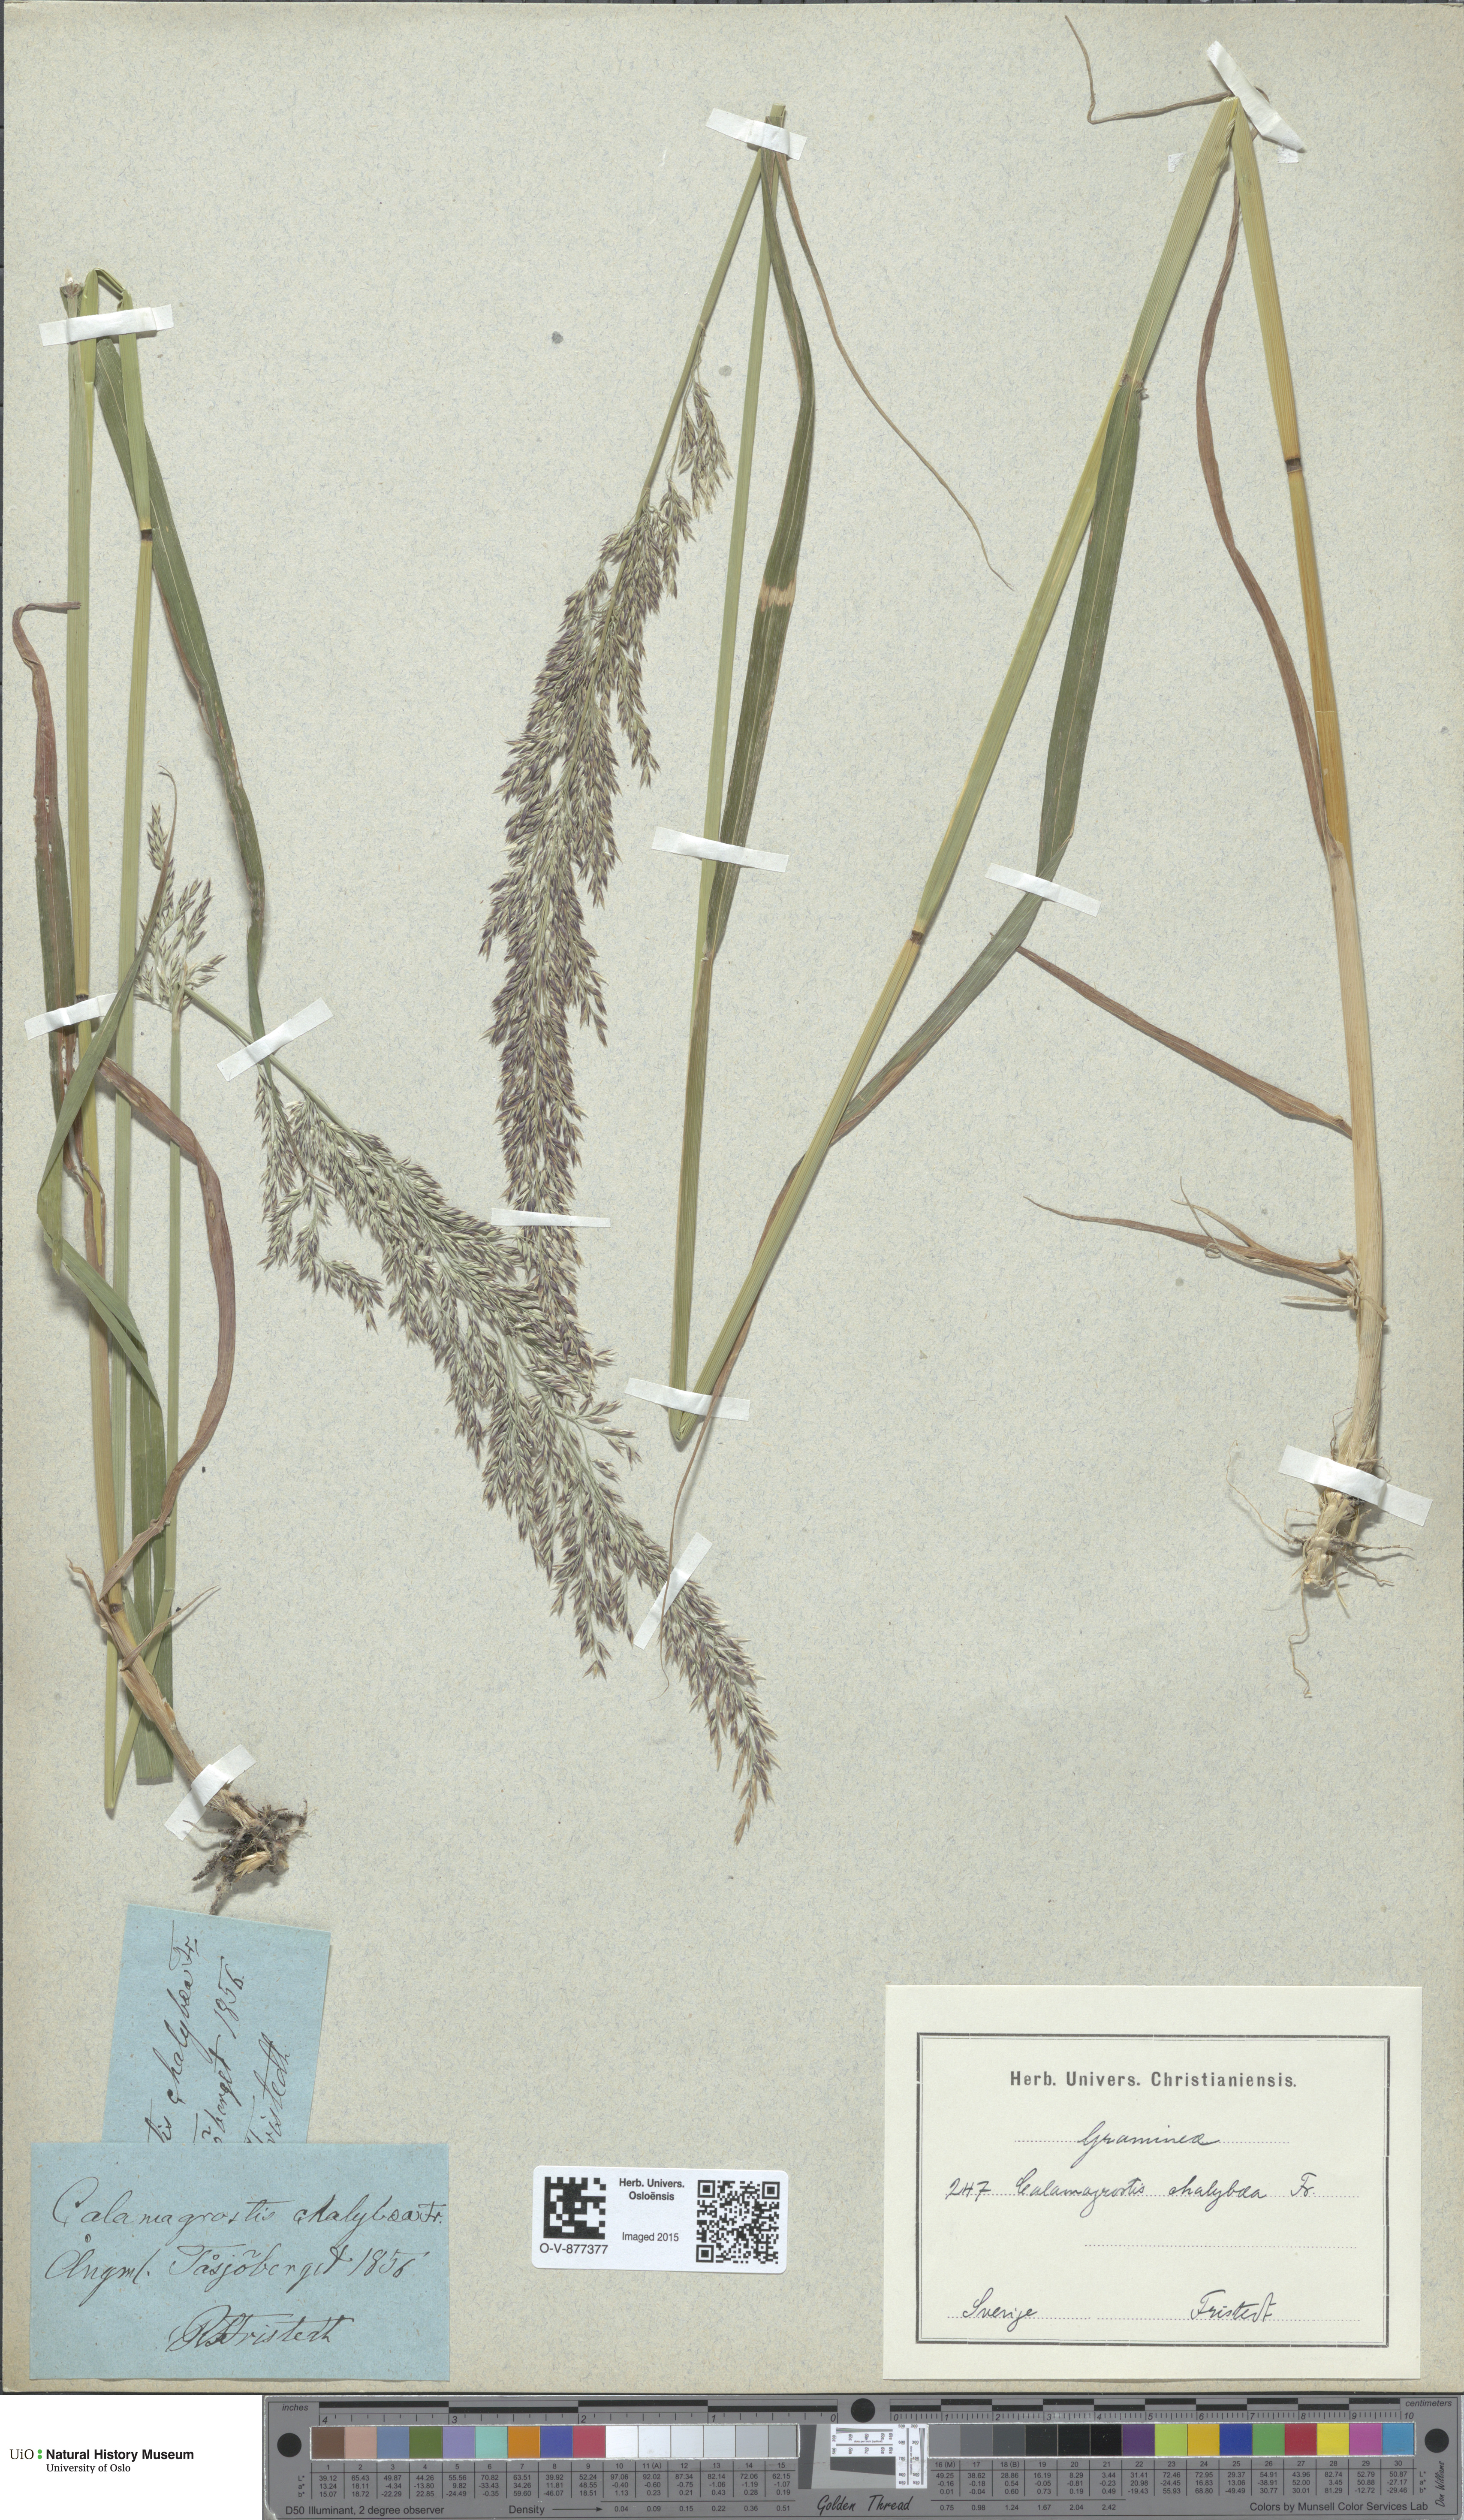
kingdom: Plantae
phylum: Tracheophyta
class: Liliopsida
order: Poales
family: Poaceae
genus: Calamagrostis
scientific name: Calamagrostis chalybaea
